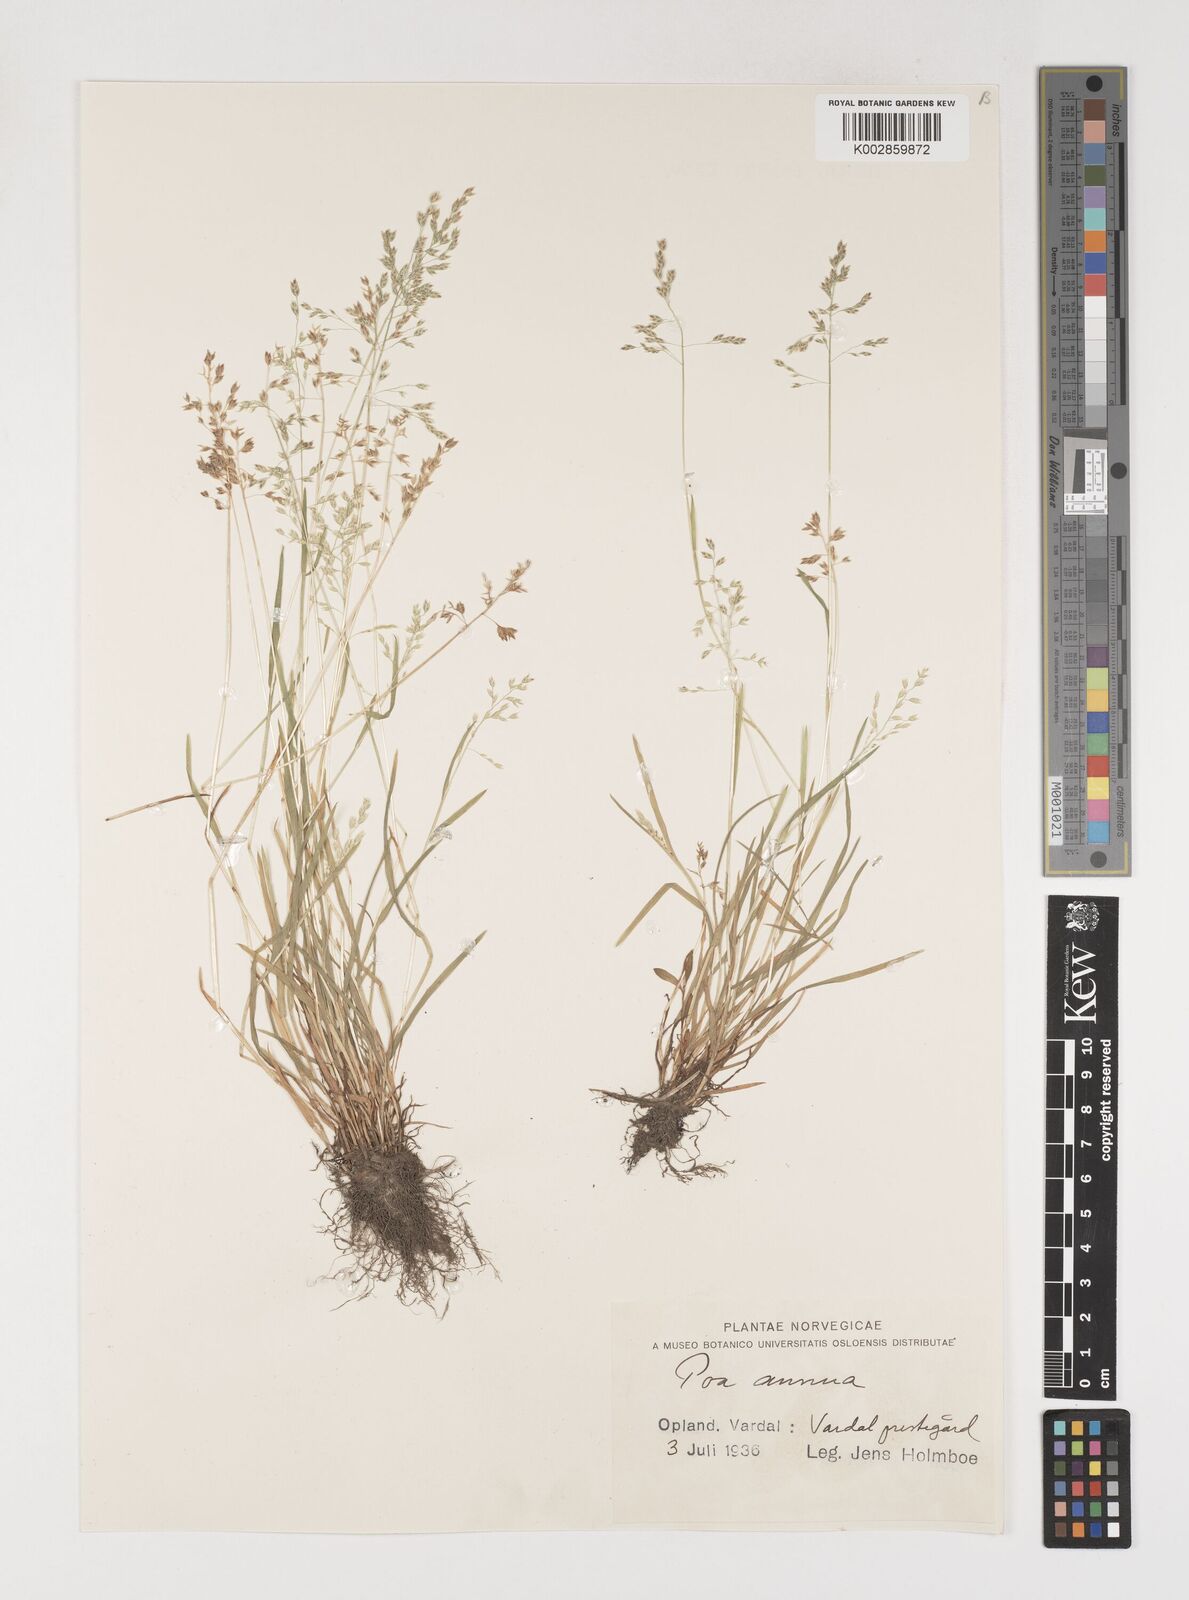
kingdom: Plantae
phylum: Tracheophyta
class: Liliopsida
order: Poales
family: Poaceae
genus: Poa
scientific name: Poa annua
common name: Annual bluegrass
